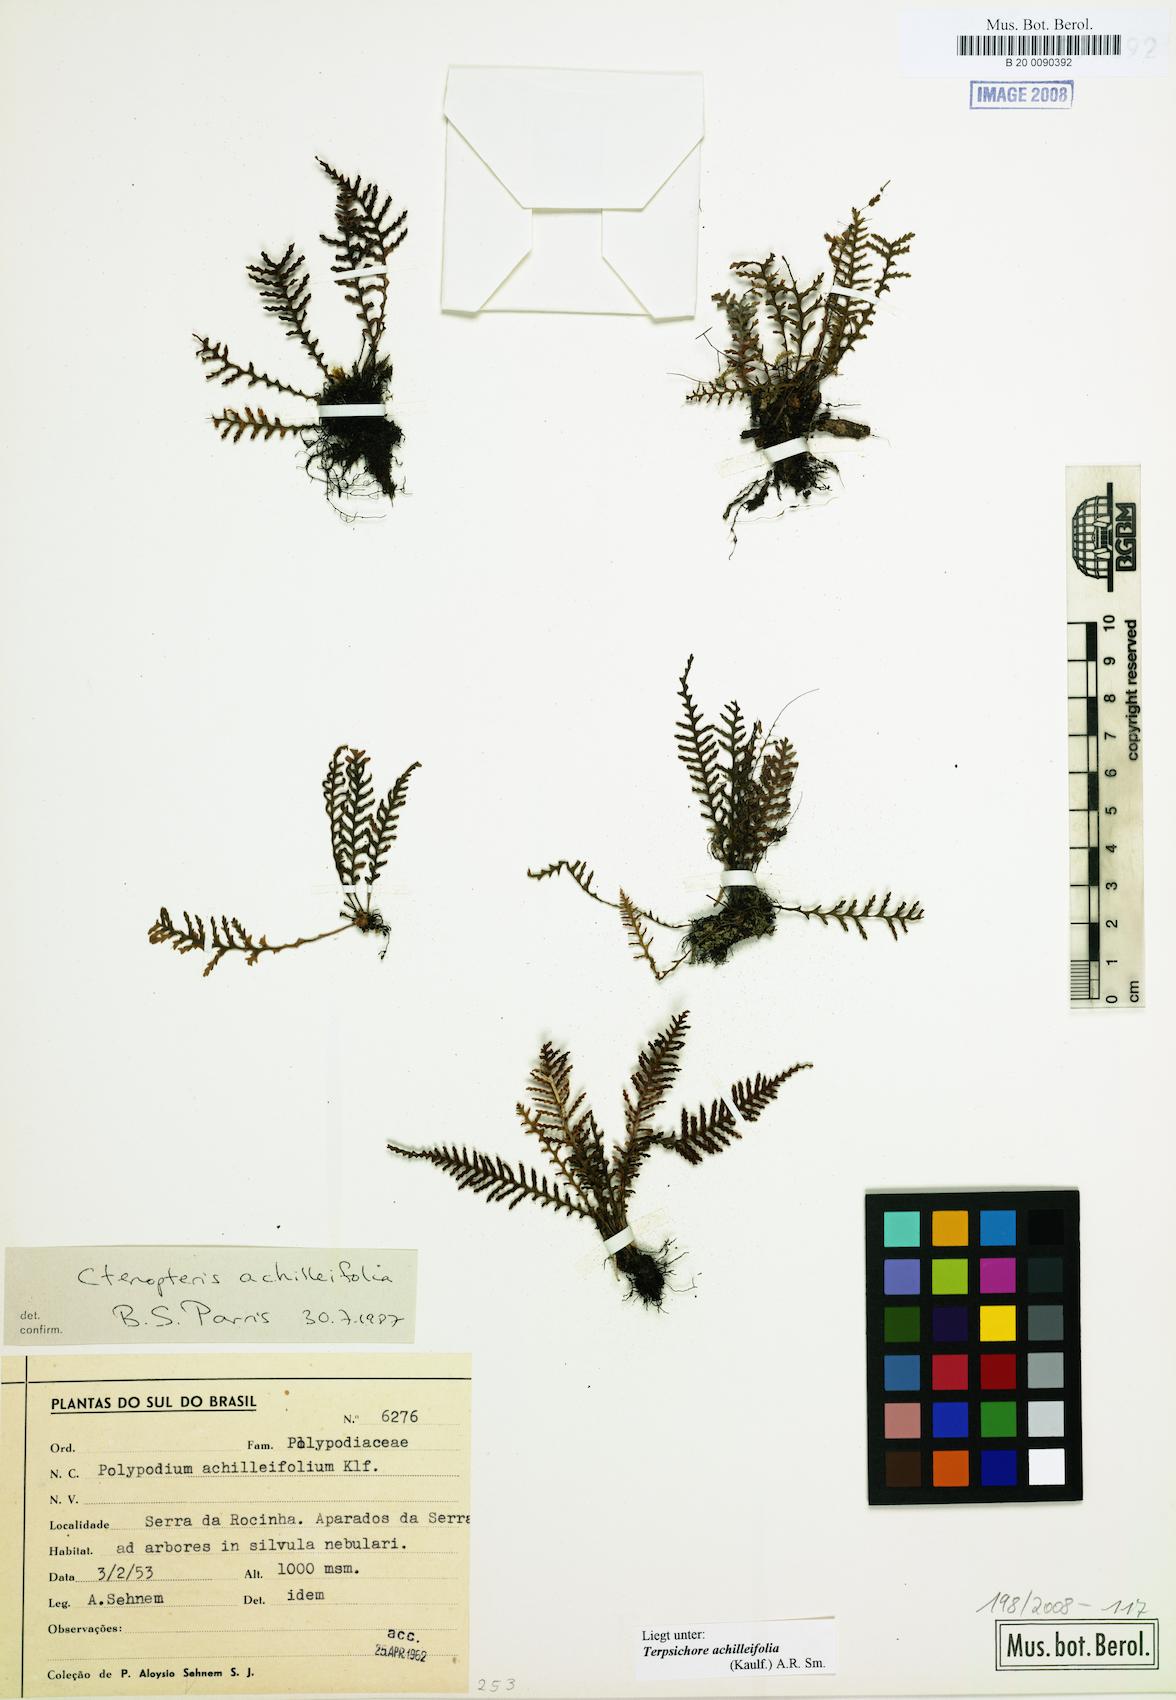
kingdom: Plantae
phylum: Tracheophyta
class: Polypodiopsida
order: Polypodiales
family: Polypodiaceae
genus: Moranopteris
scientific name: Moranopteris achilleifolia
